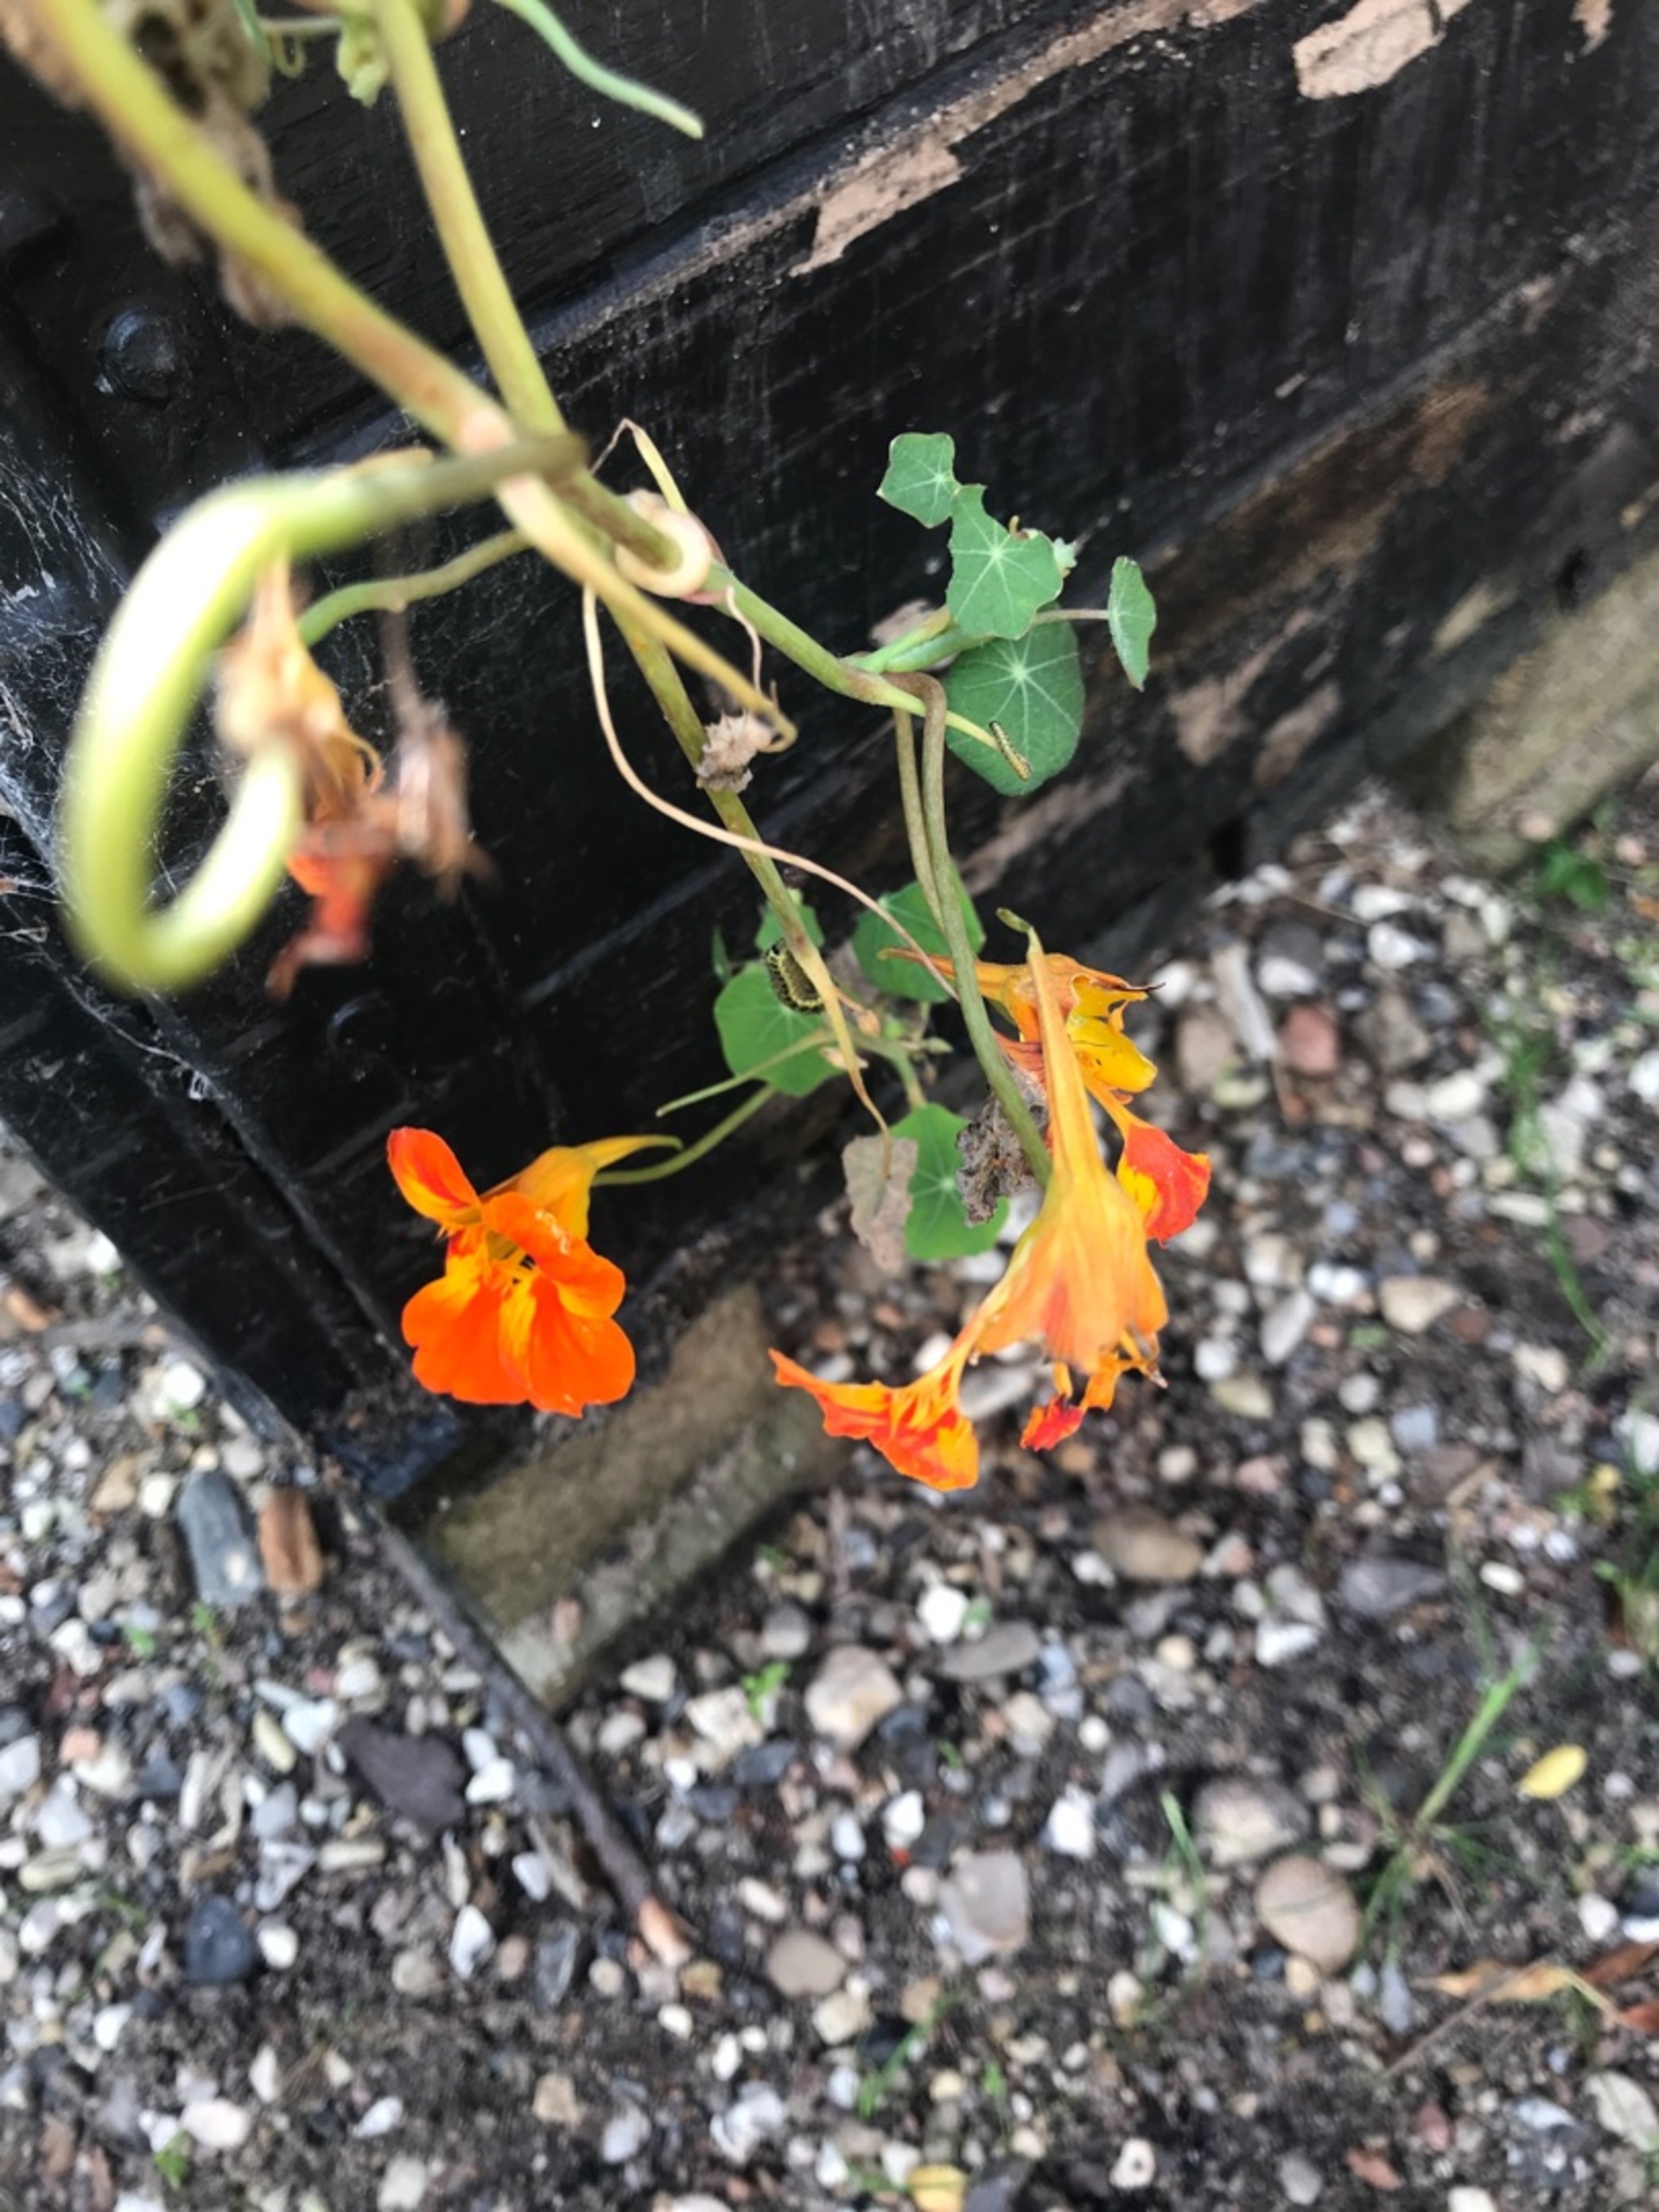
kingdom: Plantae
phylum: Tracheophyta
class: Magnoliopsida
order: Brassicales
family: Tropaeolaceae
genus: Tropaeolum
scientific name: Tropaeolum majus
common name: Blomsterkarse
